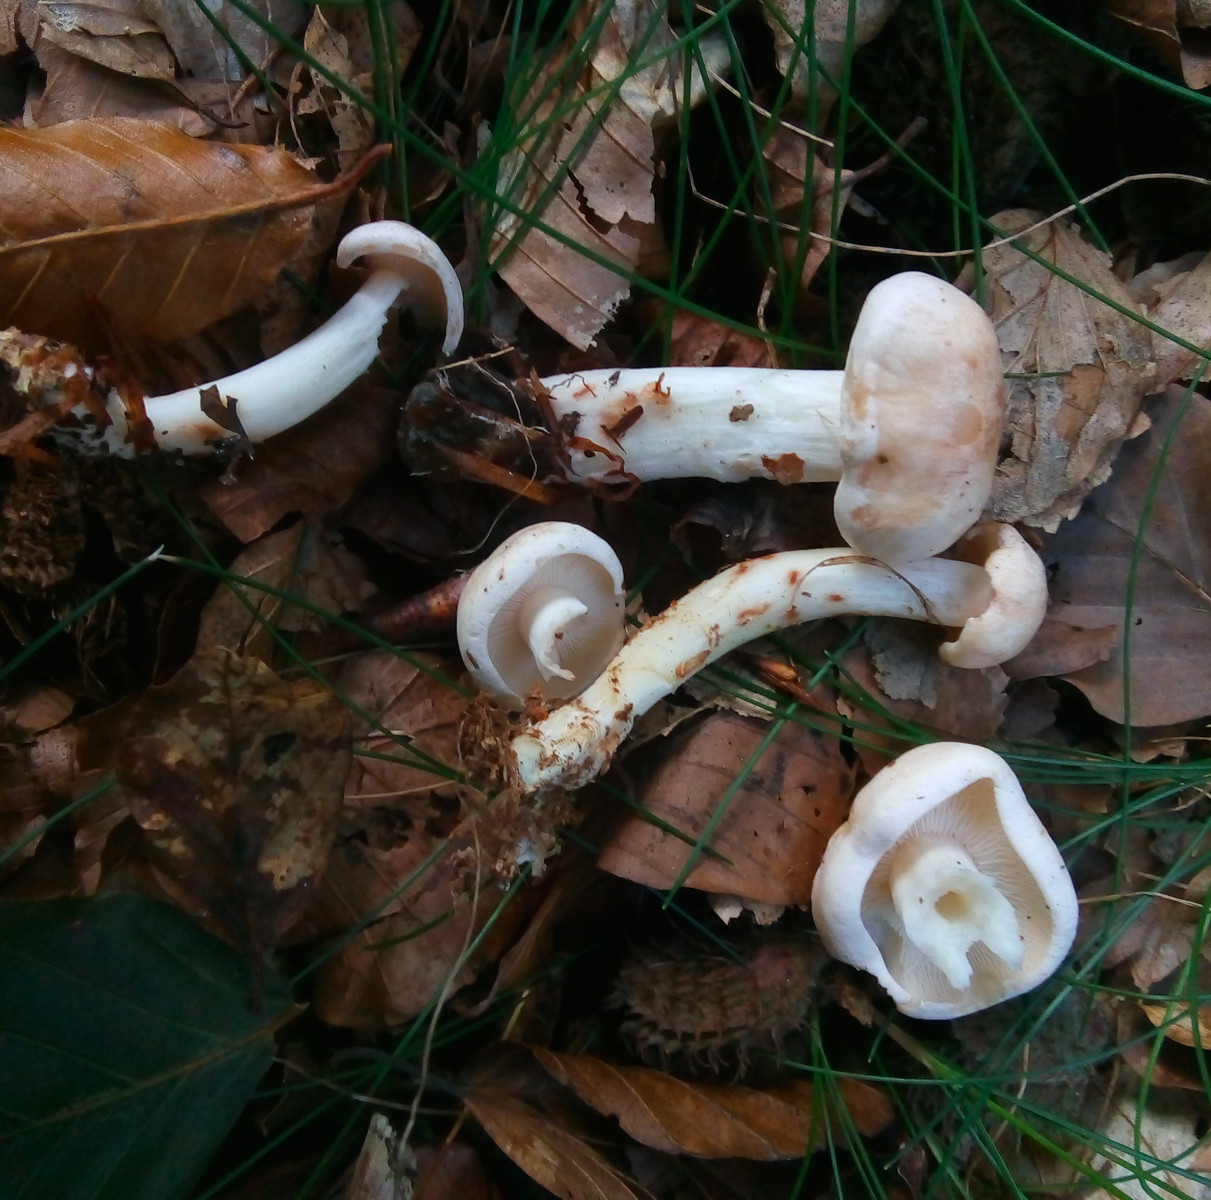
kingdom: Fungi
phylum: Basidiomycota
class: Agaricomycetes
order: Agaricales
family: Omphalotaceae
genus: Rhodocollybia
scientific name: Rhodocollybia maculata
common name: plettet fladhat
